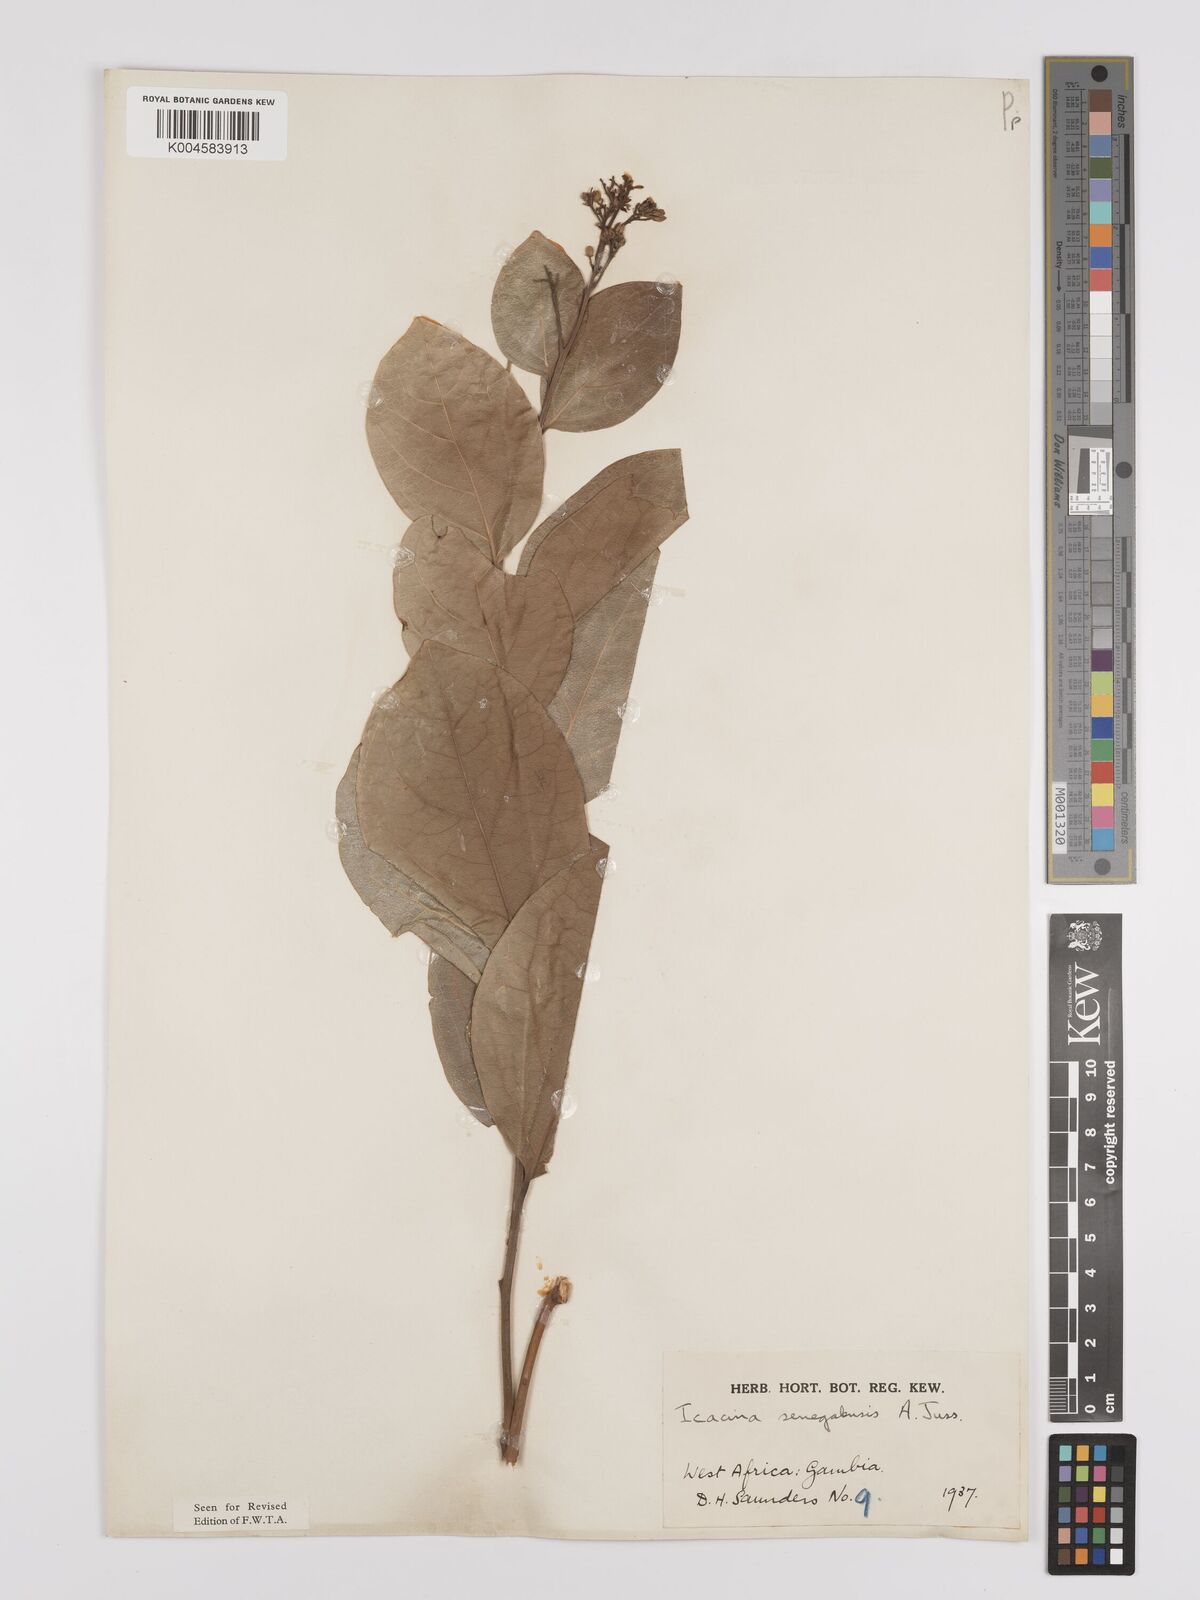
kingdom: Plantae
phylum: Tracheophyta
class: Magnoliopsida
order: Icacinales
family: Icacinaceae
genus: Icacina
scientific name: Icacina oliviformis
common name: False yam
